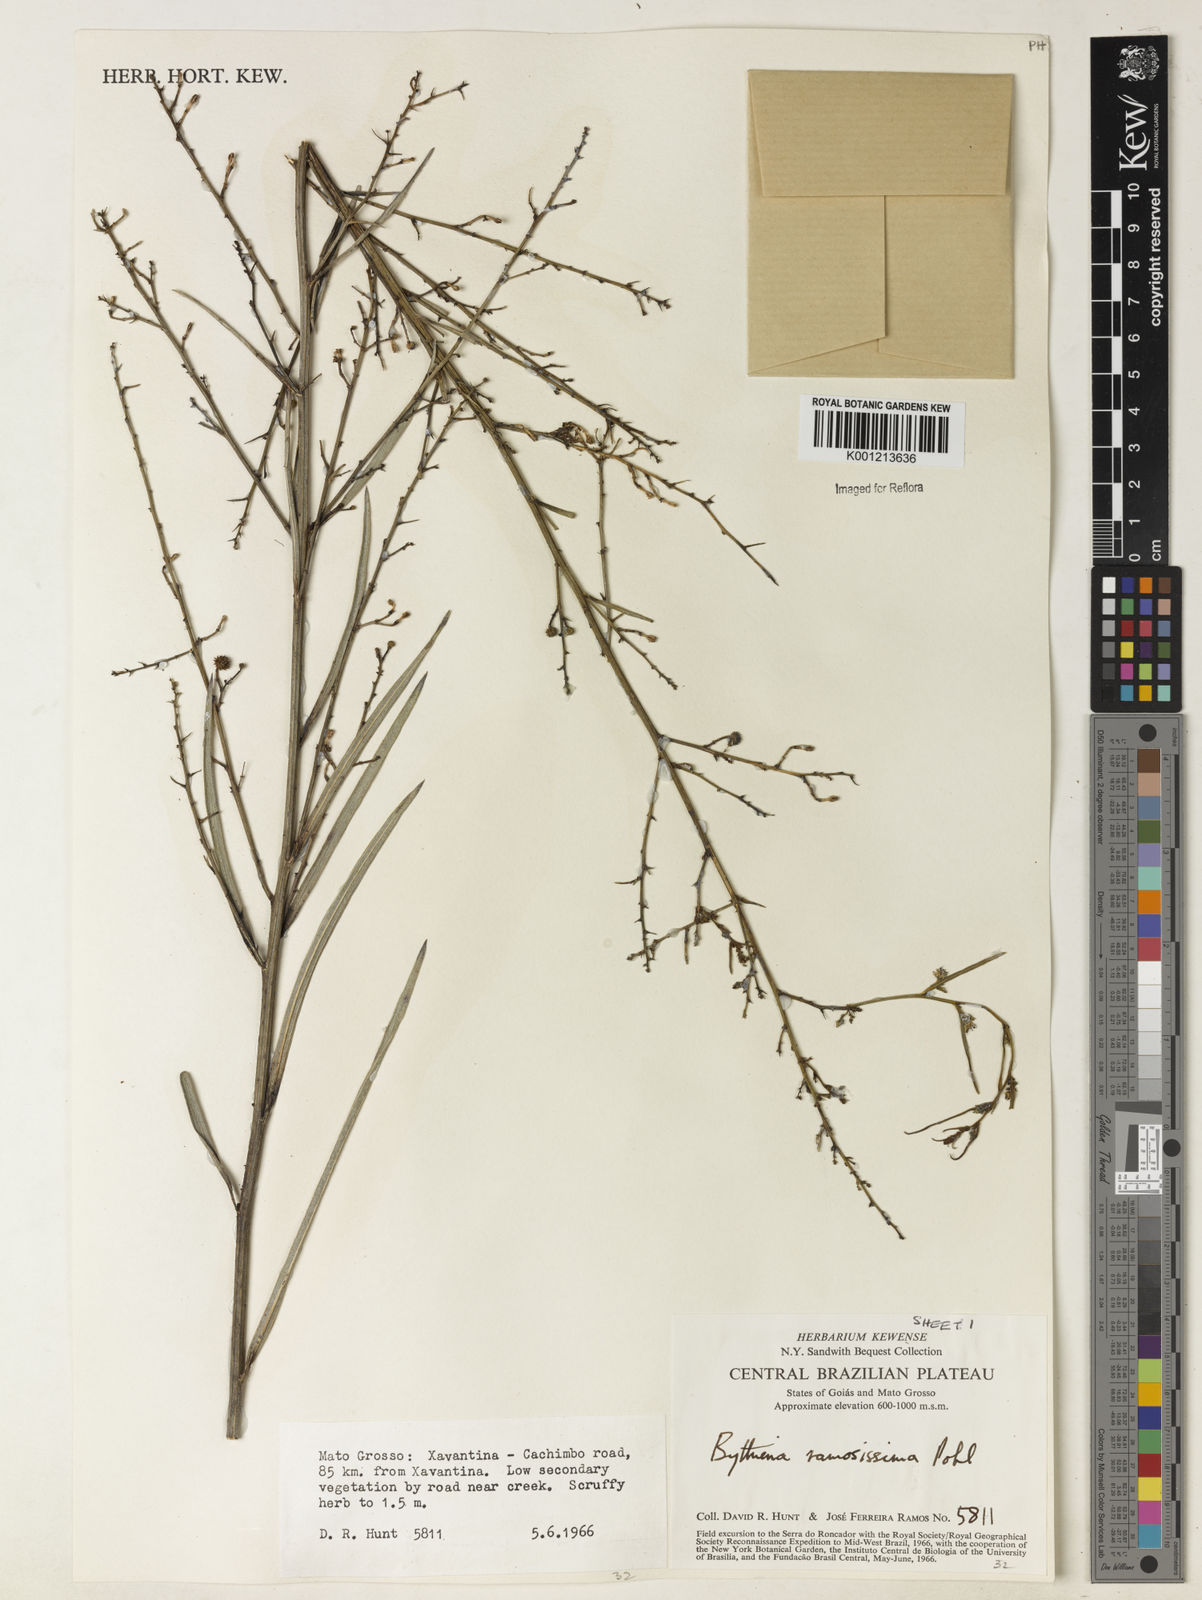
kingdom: Plantae
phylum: Tracheophyta
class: Magnoliopsida
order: Malvales
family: Malvaceae
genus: Byttneria
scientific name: Byttneria ramosissima
